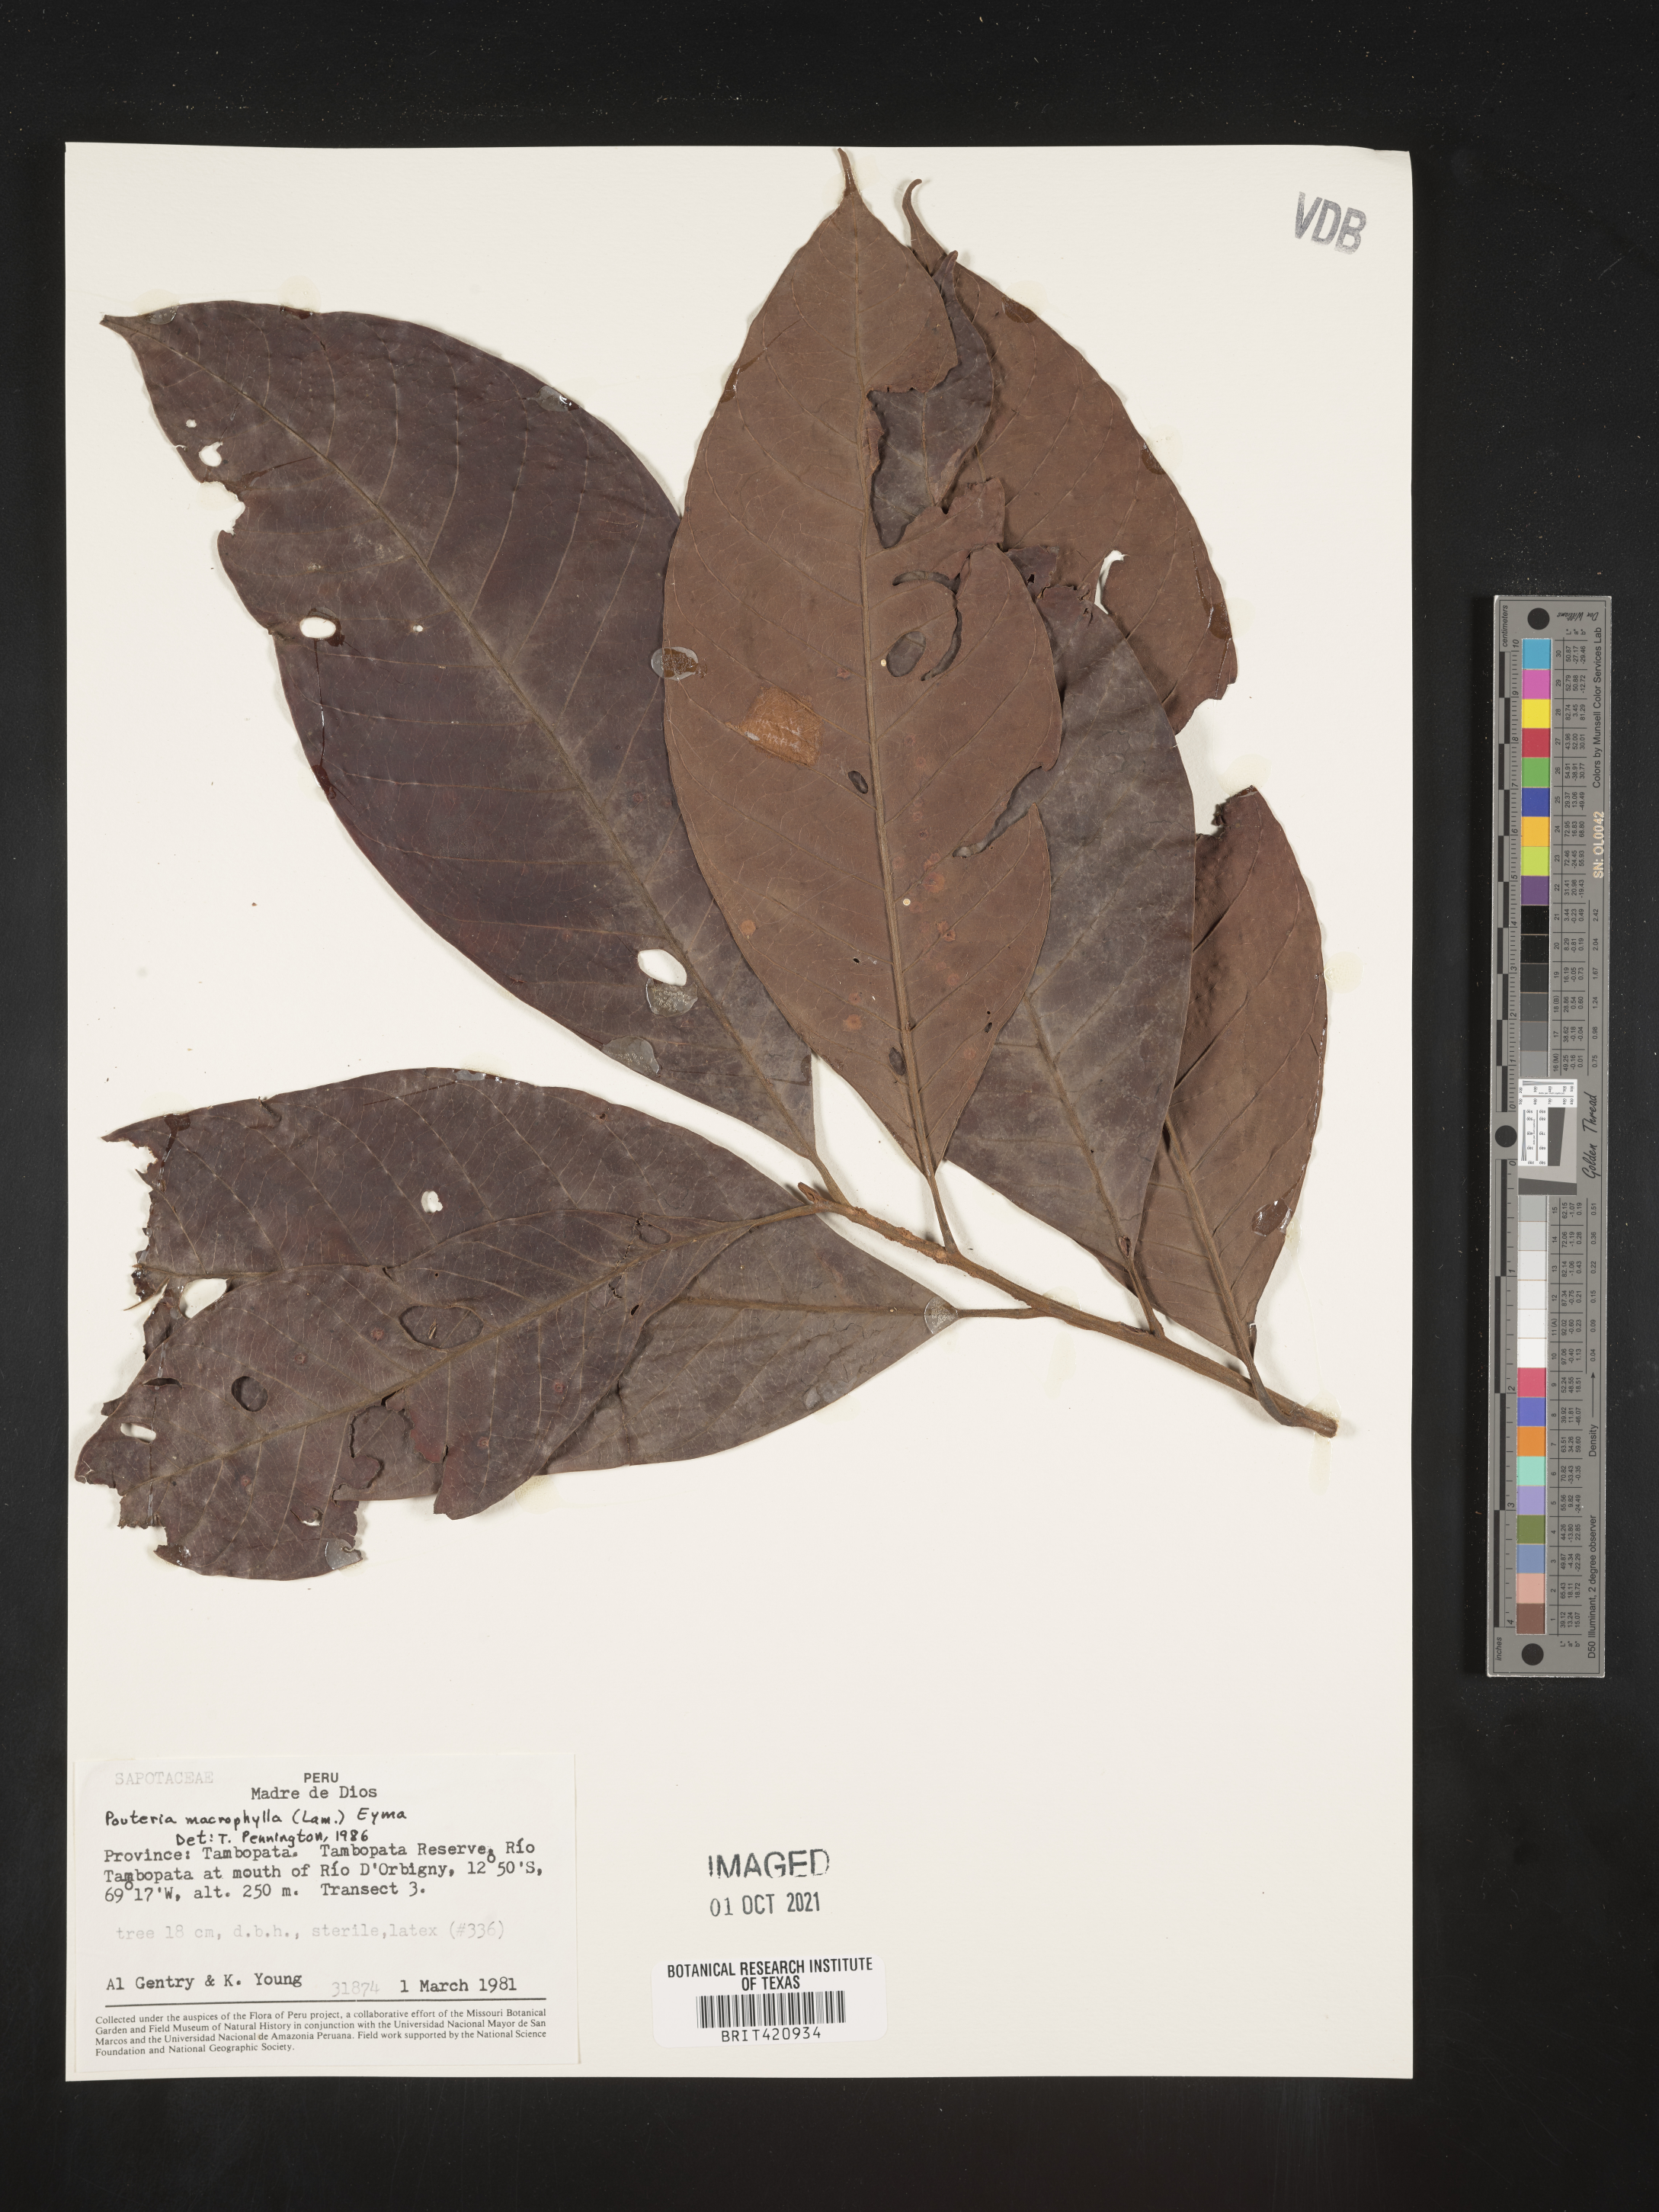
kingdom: Plantae
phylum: Tracheophyta
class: Magnoliopsida
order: Ericales
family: Sapotaceae
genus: Pouteria
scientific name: Pouteria
